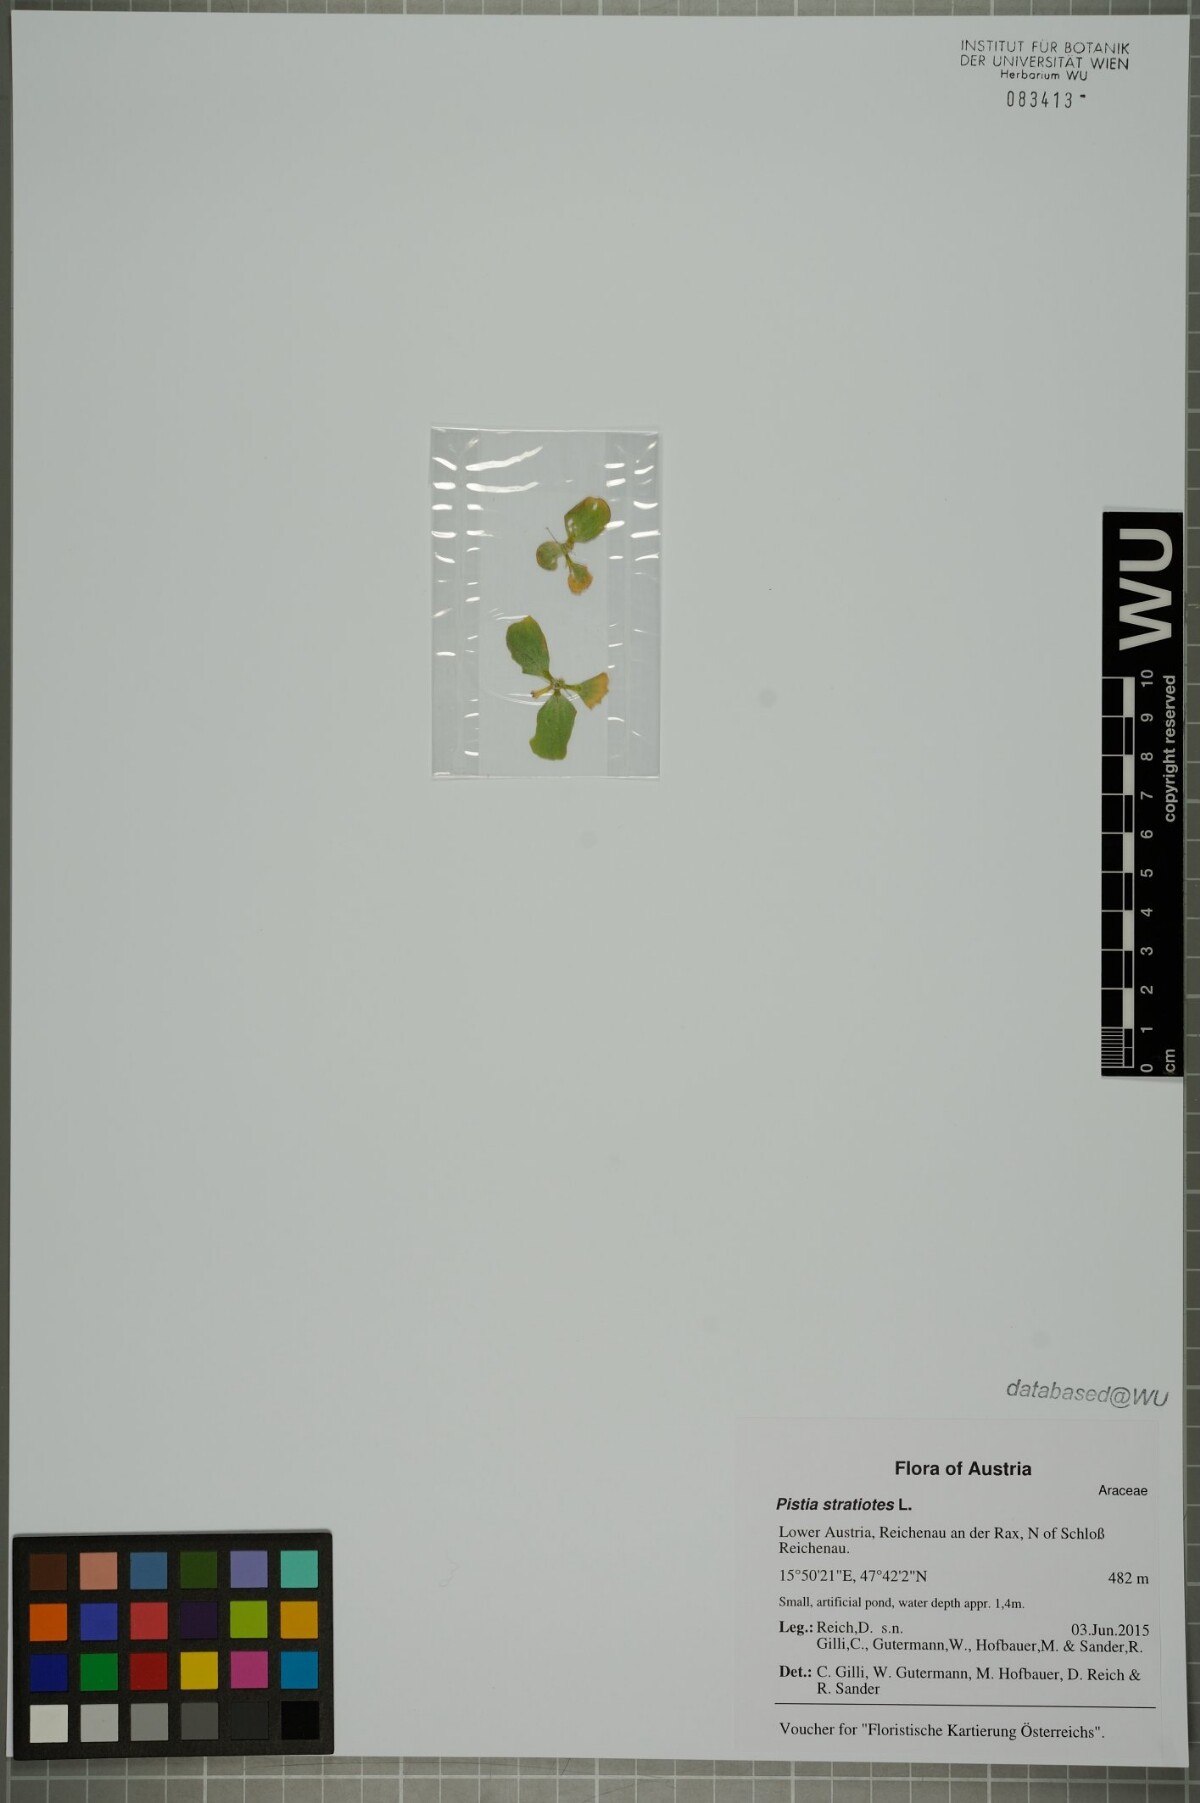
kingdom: Plantae
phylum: Tracheophyta
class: Liliopsida
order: Alismatales
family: Araceae
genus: Pistia
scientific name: Pistia stratiotes
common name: Water lettuce
